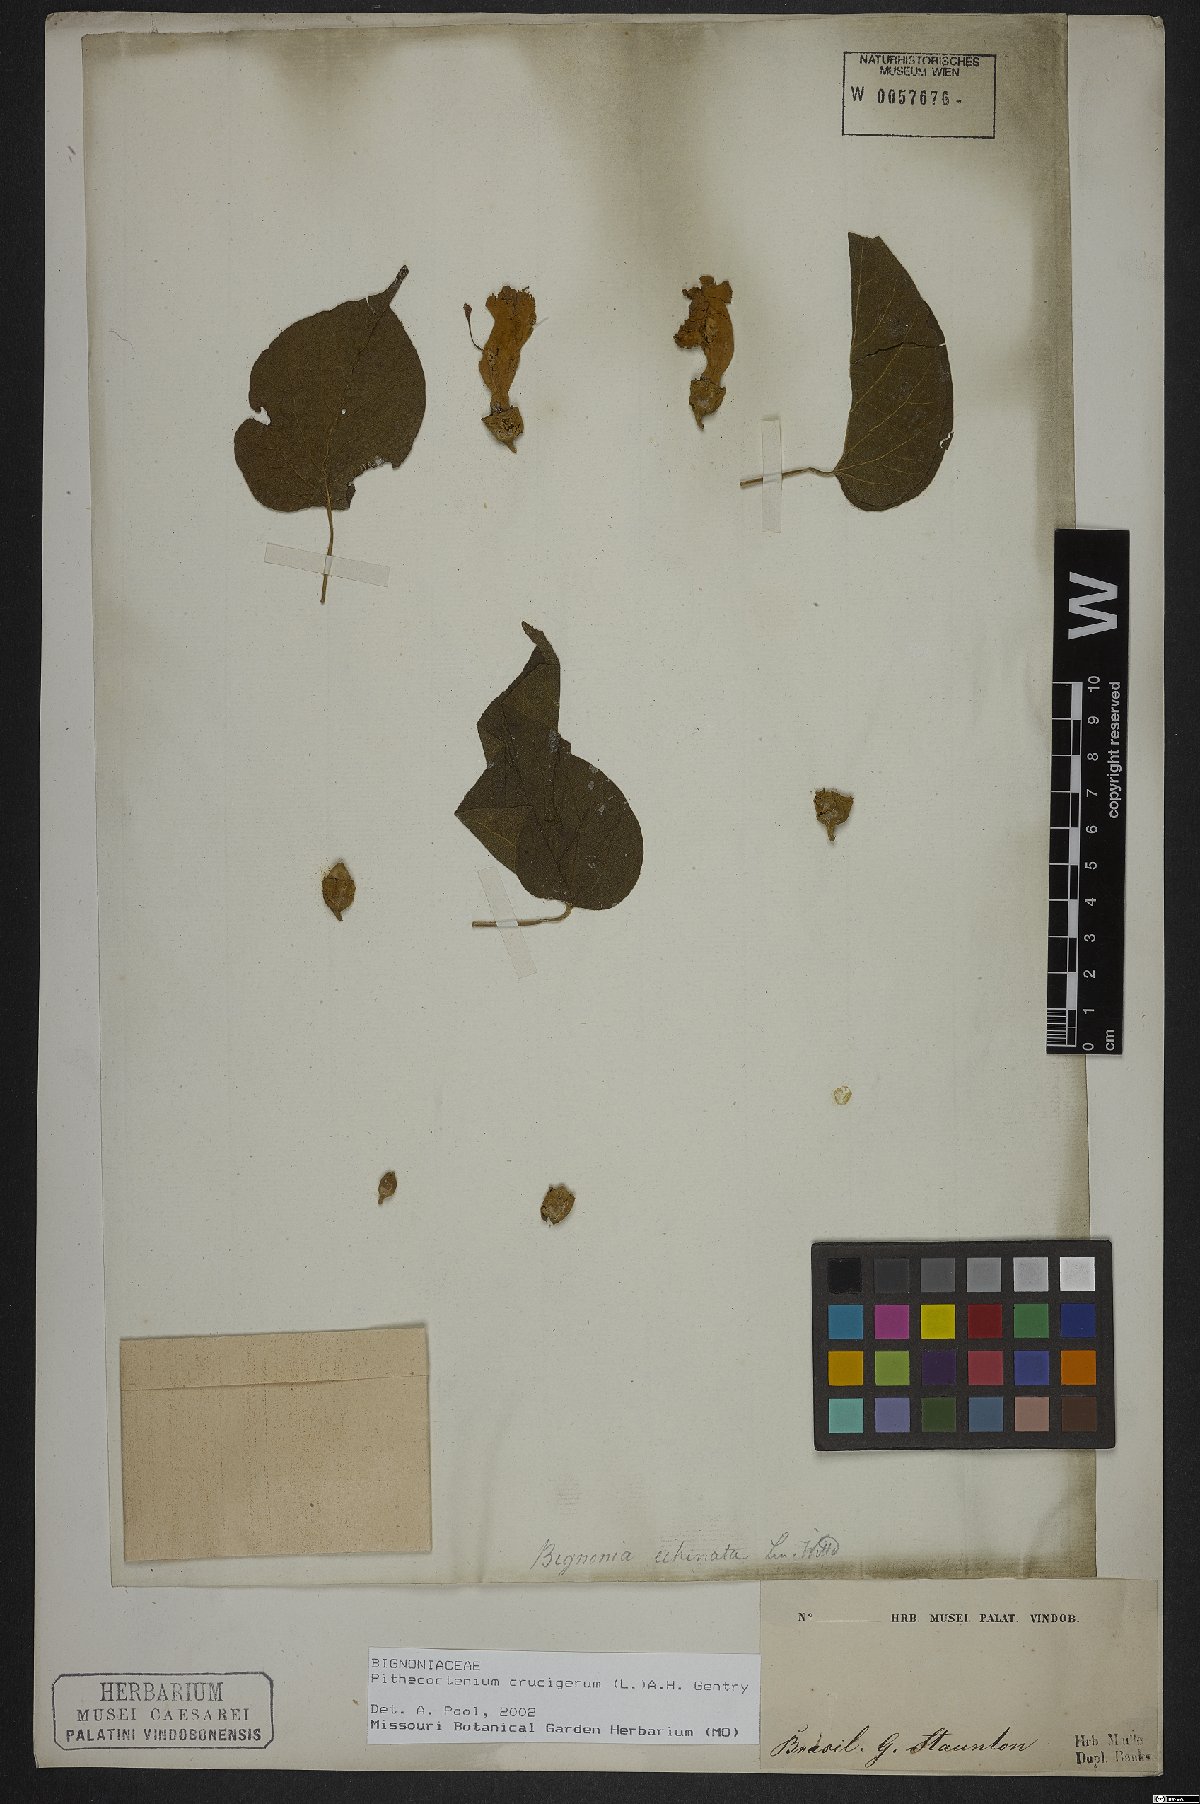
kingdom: Plantae
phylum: Tracheophyta
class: Magnoliopsida
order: Lamiales
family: Bignoniaceae
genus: Amphilophium
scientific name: Amphilophium crucigerum
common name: Monkey comb
